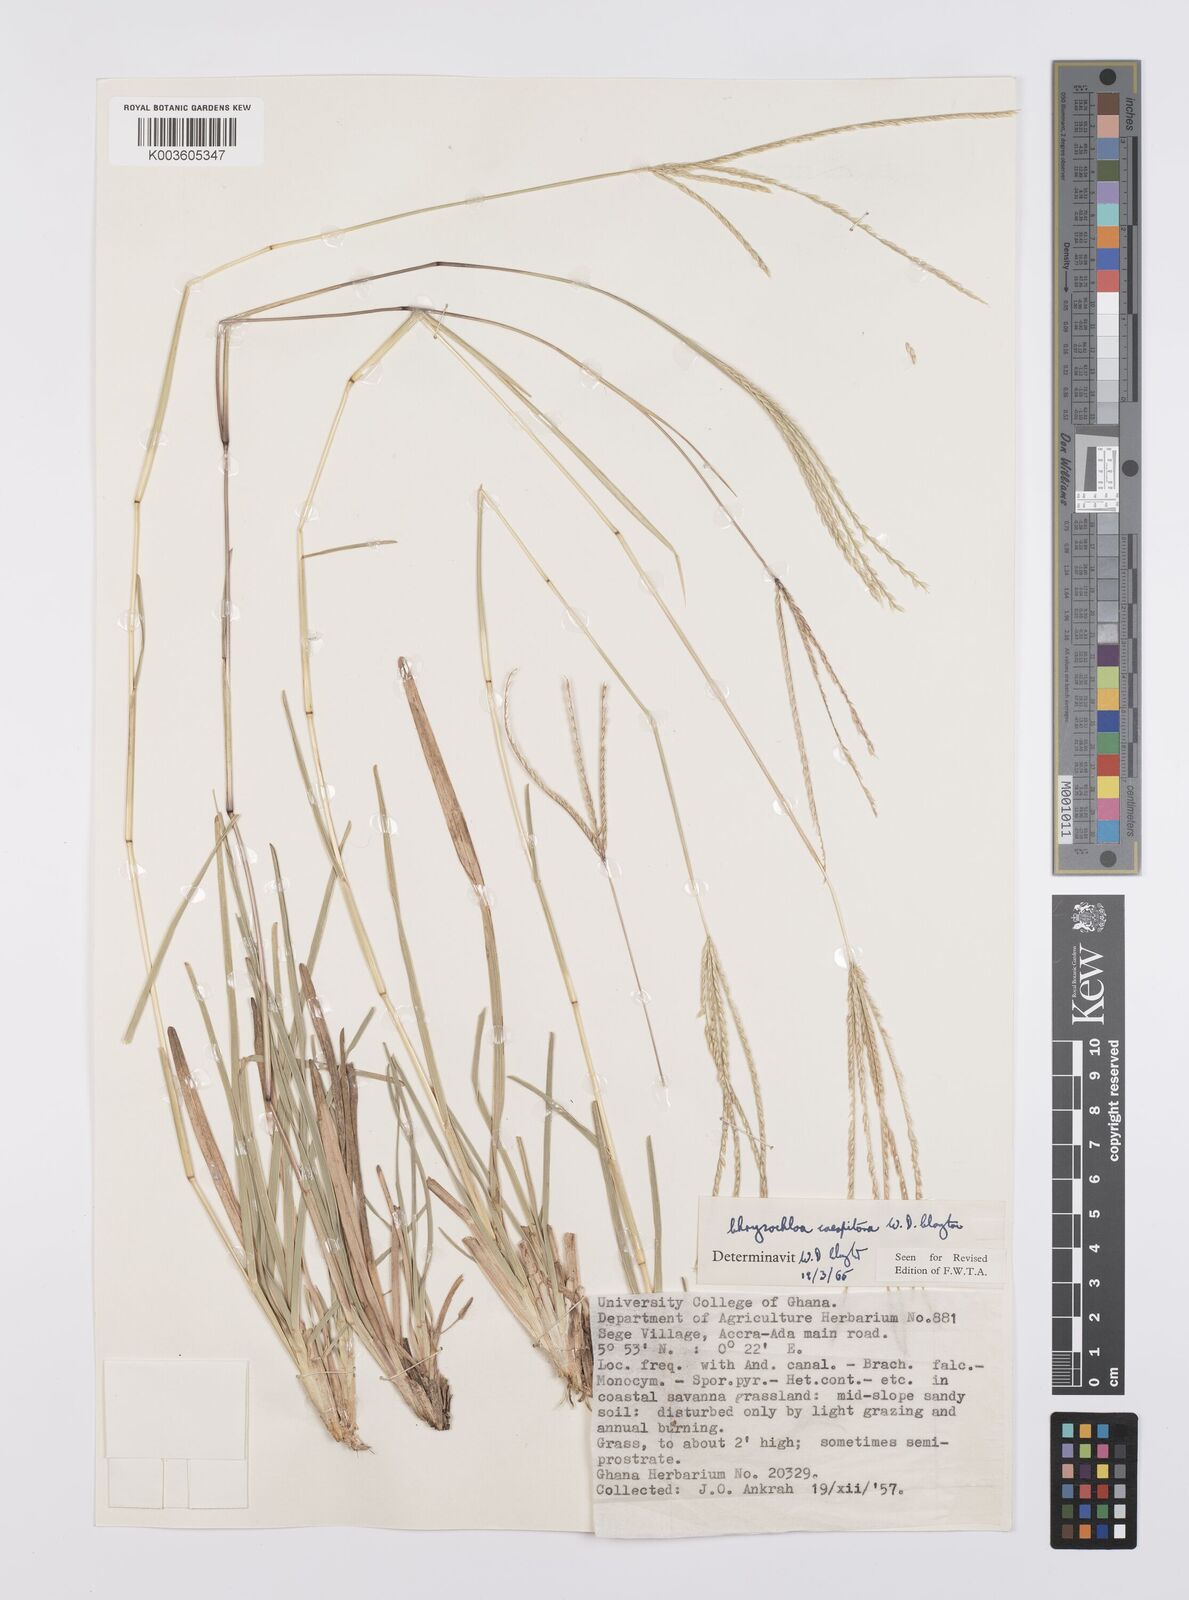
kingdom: Plantae
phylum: Tracheophyta
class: Liliopsida
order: Poales
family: Poaceae
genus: Chrysochloa
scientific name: Chrysochloa hindsii
